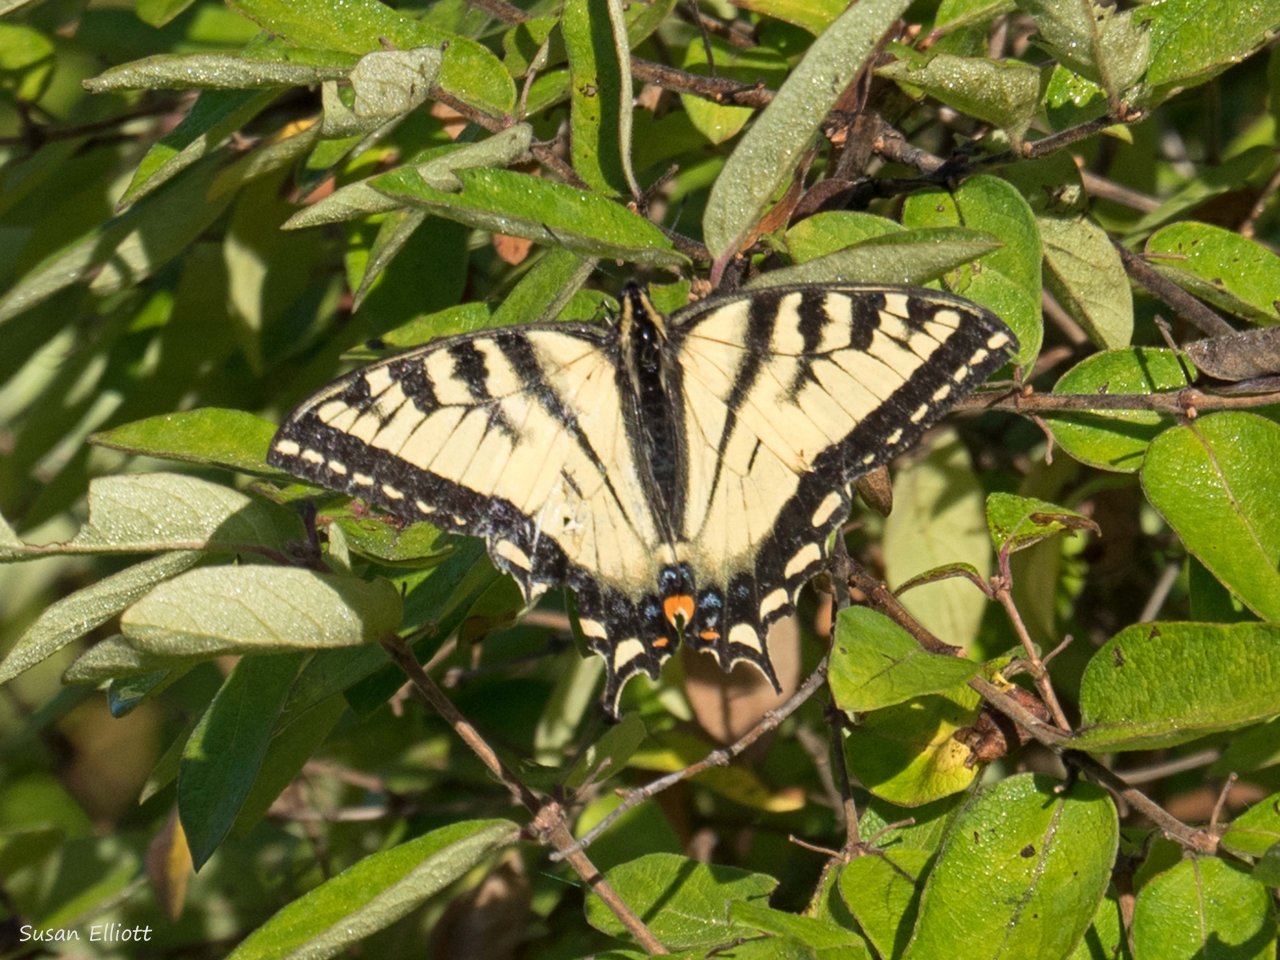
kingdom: Animalia
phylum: Arthropoda
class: Insecta
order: Lepidoptera
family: Papilionidae
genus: Papilio
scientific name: Papilio
